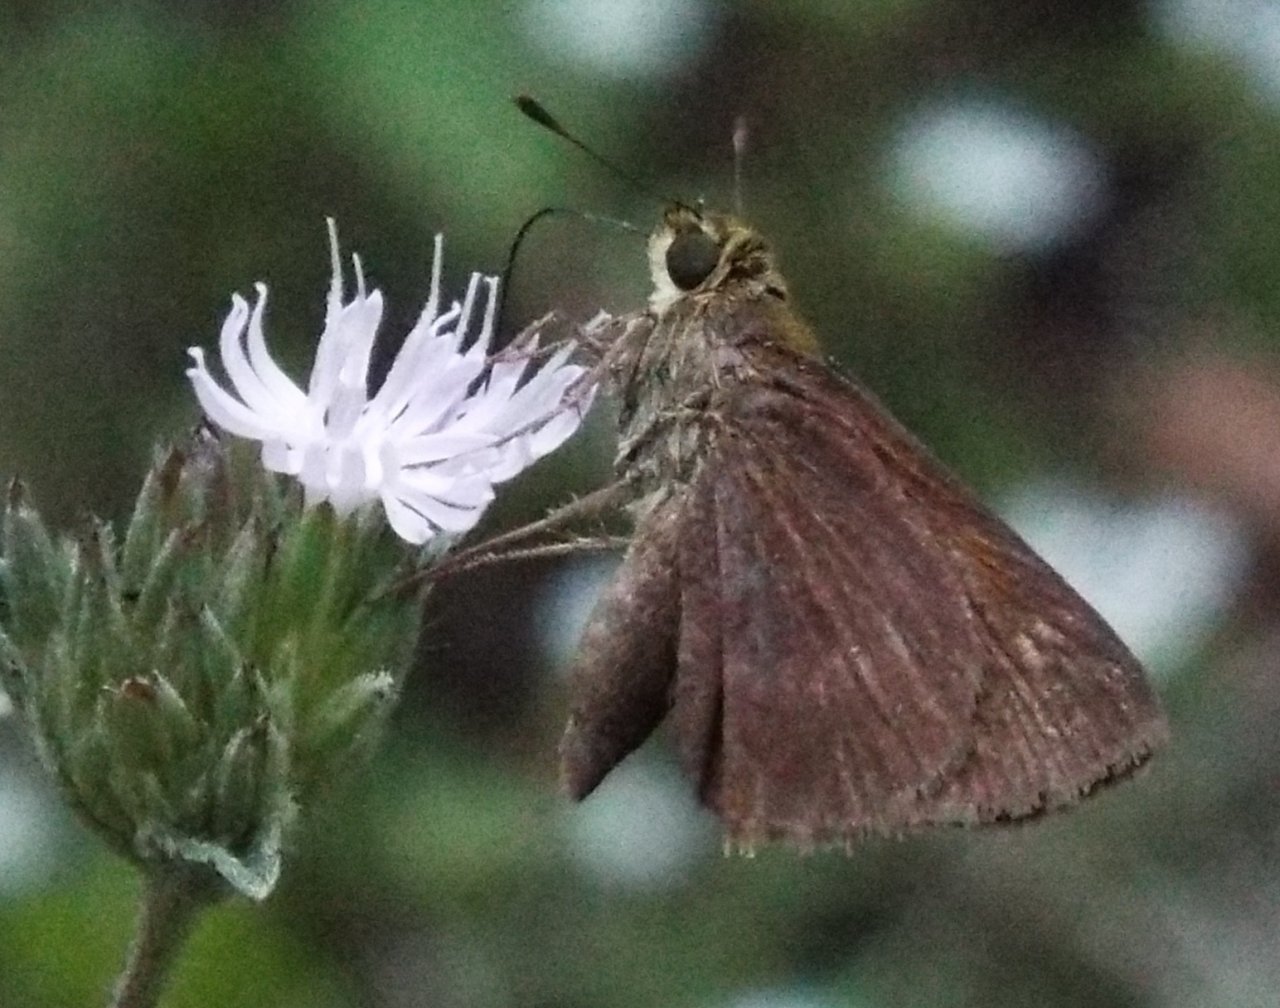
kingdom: Animalia
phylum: Arthropoda
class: Insecta
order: Lepidoptera
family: Hesperiidae
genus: Vernia
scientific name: Vernia verna
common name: Little Glassywing
